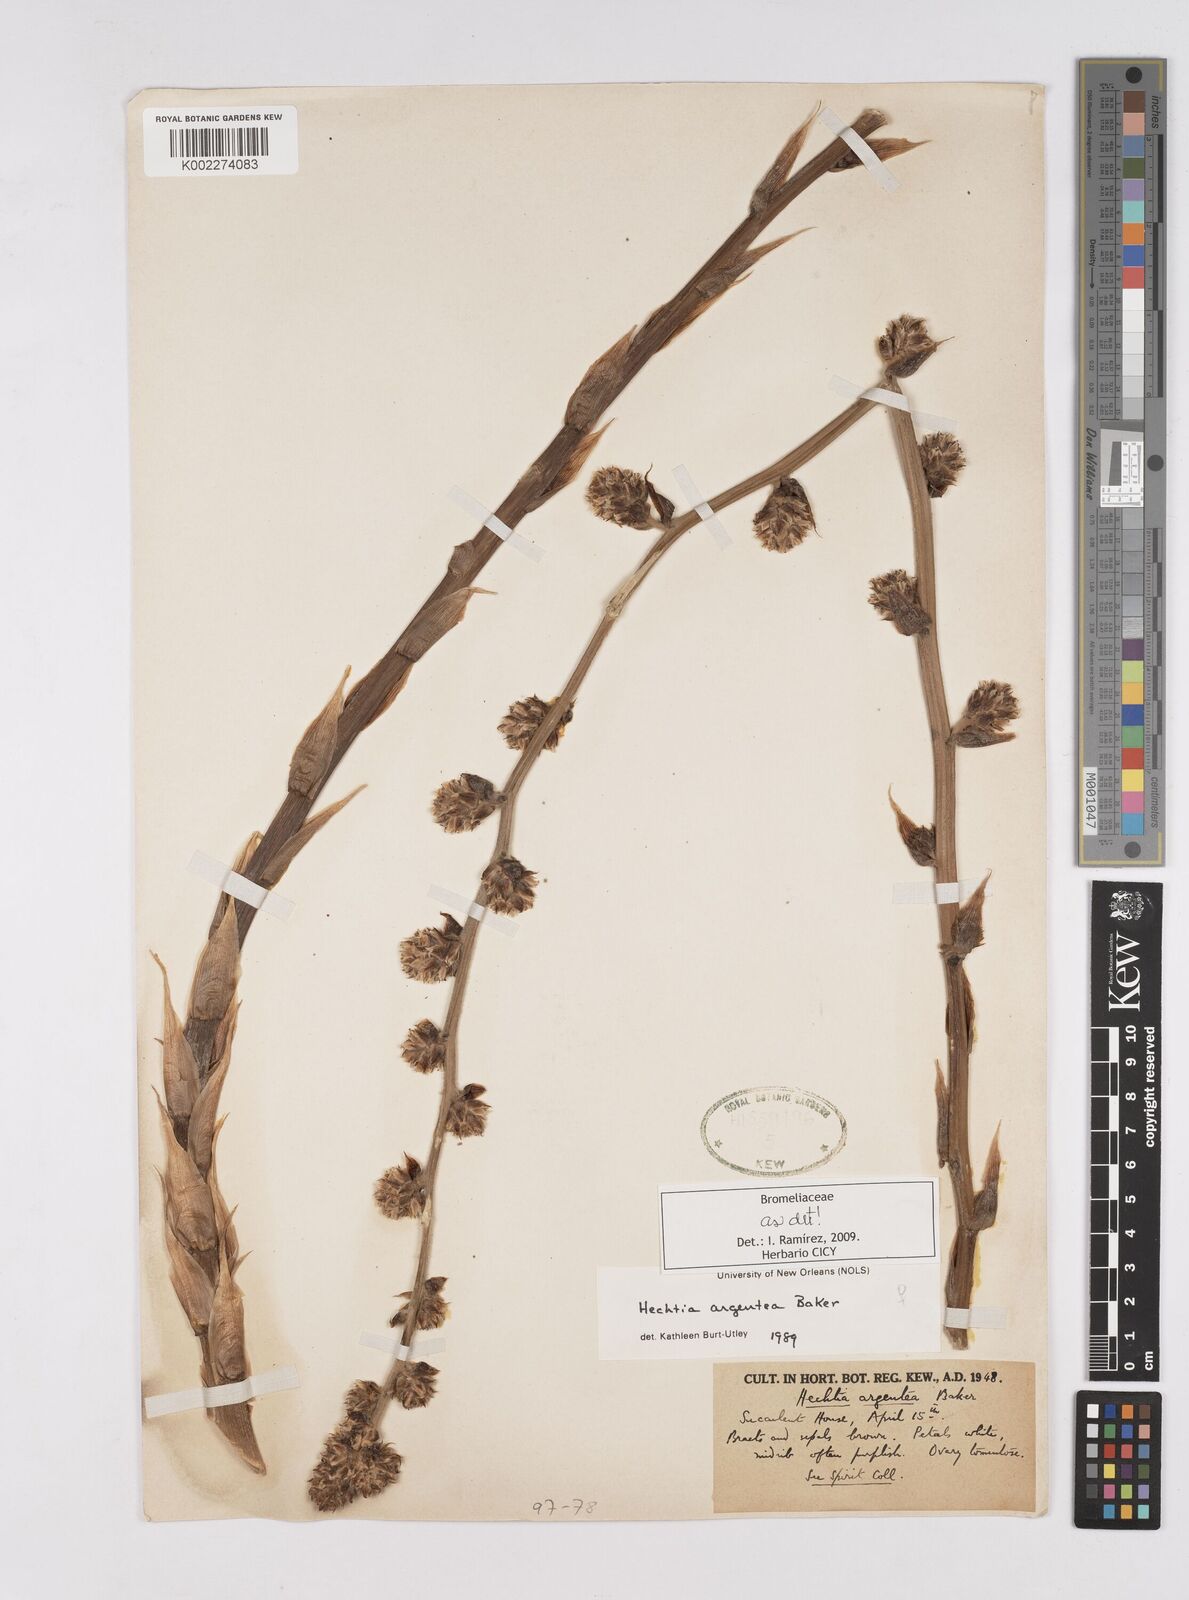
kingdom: Plantae
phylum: Tracheophyta
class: Liliopsida
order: Poales
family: Bromeliaceae
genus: Hechtia
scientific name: Hechtia argentea
